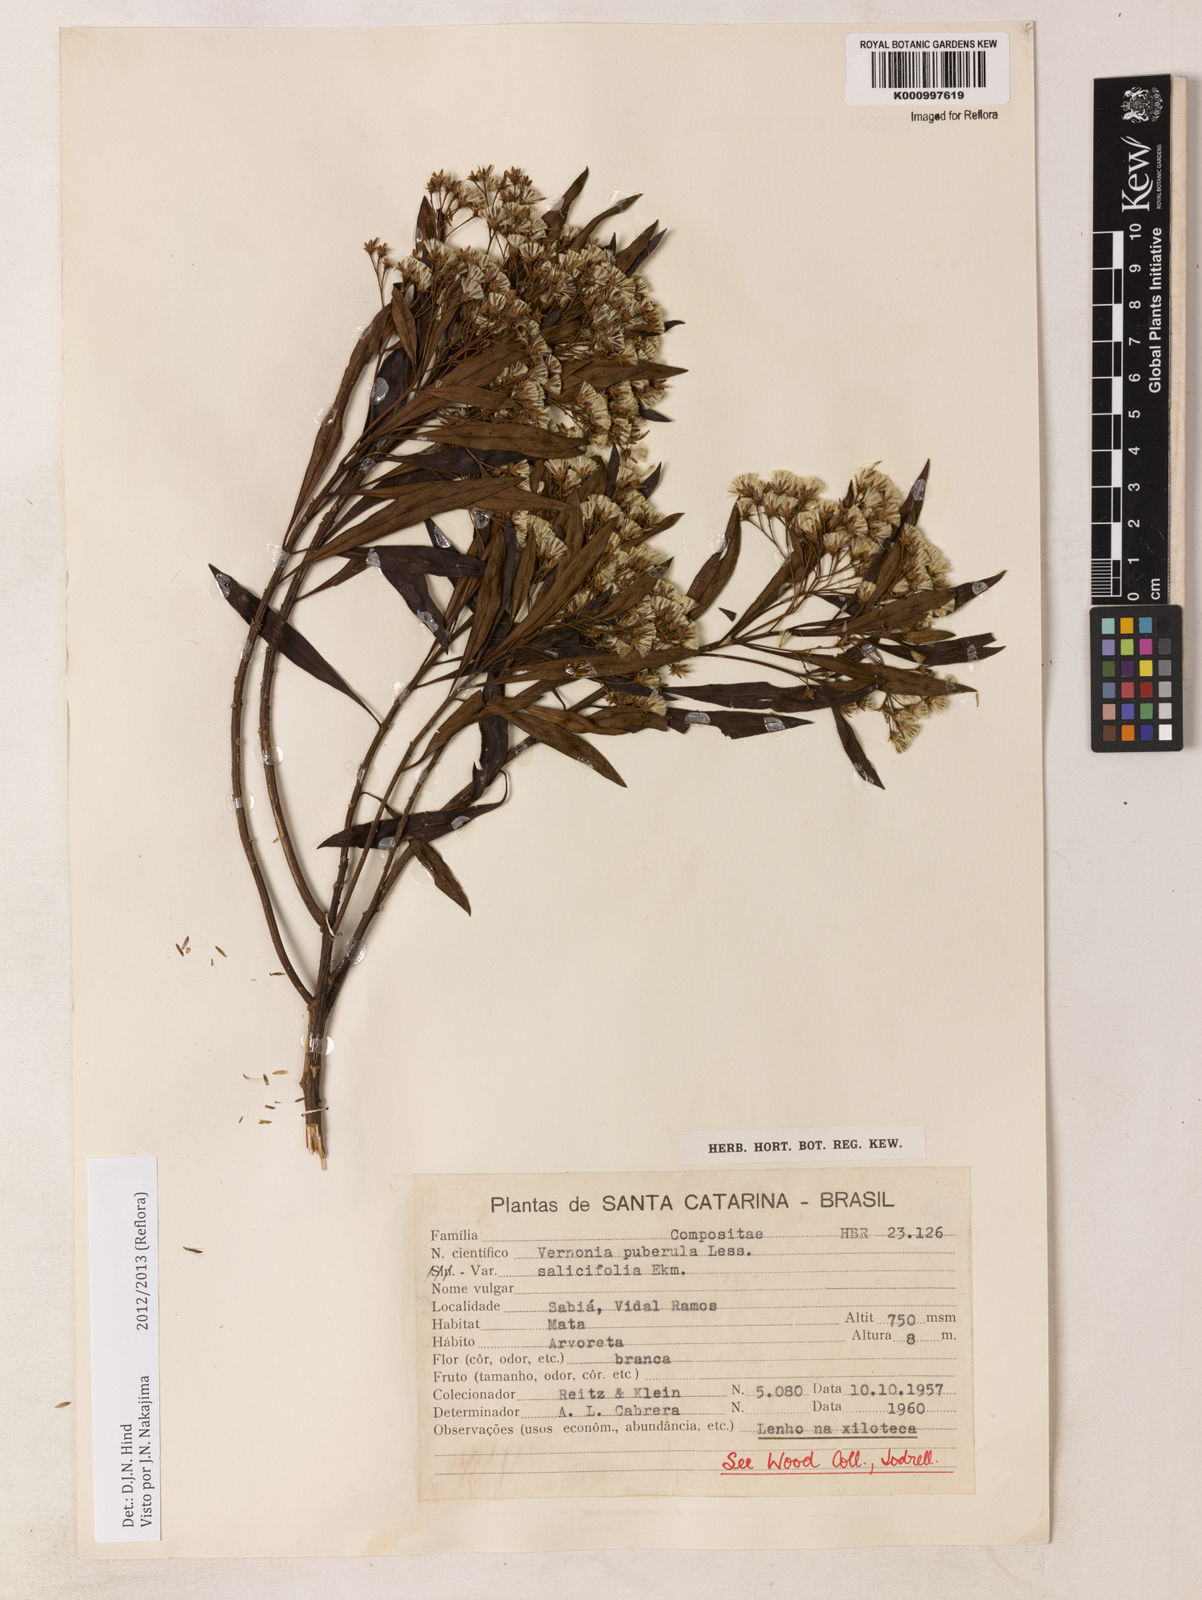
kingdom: Plantae
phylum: Tracheophyta
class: Magnoliopsida
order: Asterales
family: Asteraceae
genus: Vernonanthura
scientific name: Vernonanthura puberula
